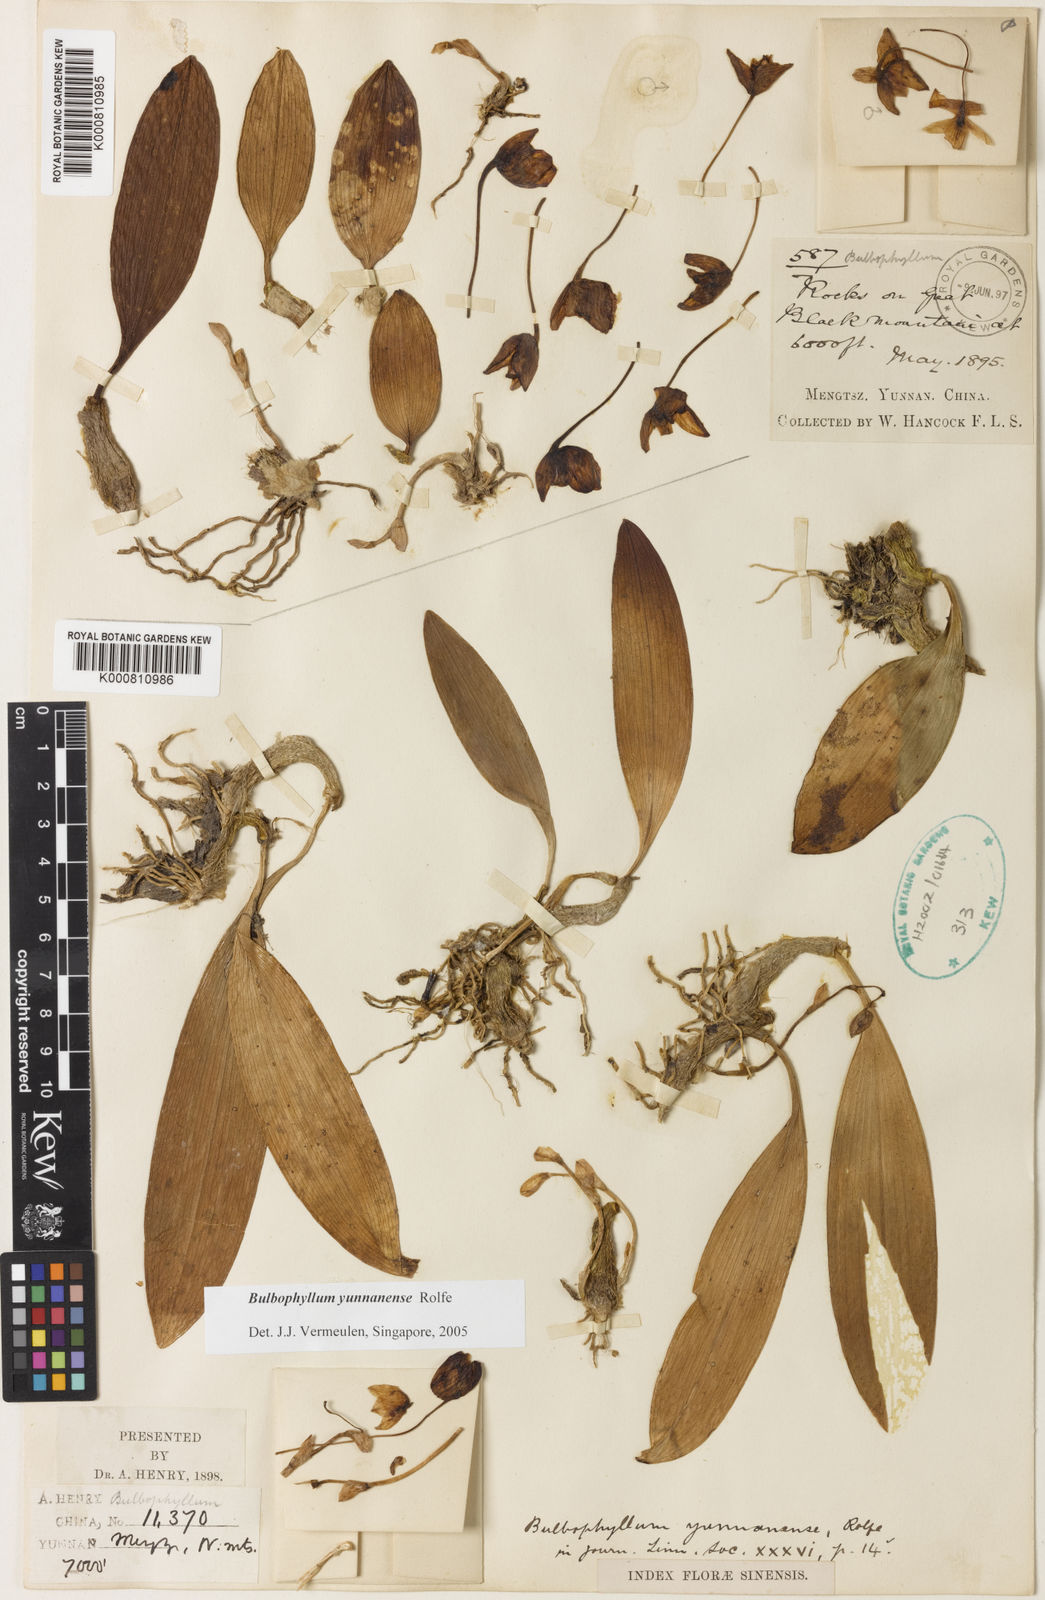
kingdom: Plantae
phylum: Tracheophyta
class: Liliopsida
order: Asparagales
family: Orchidaceae
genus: Bulbophyllum
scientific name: Bulbophyllum yunnanense
